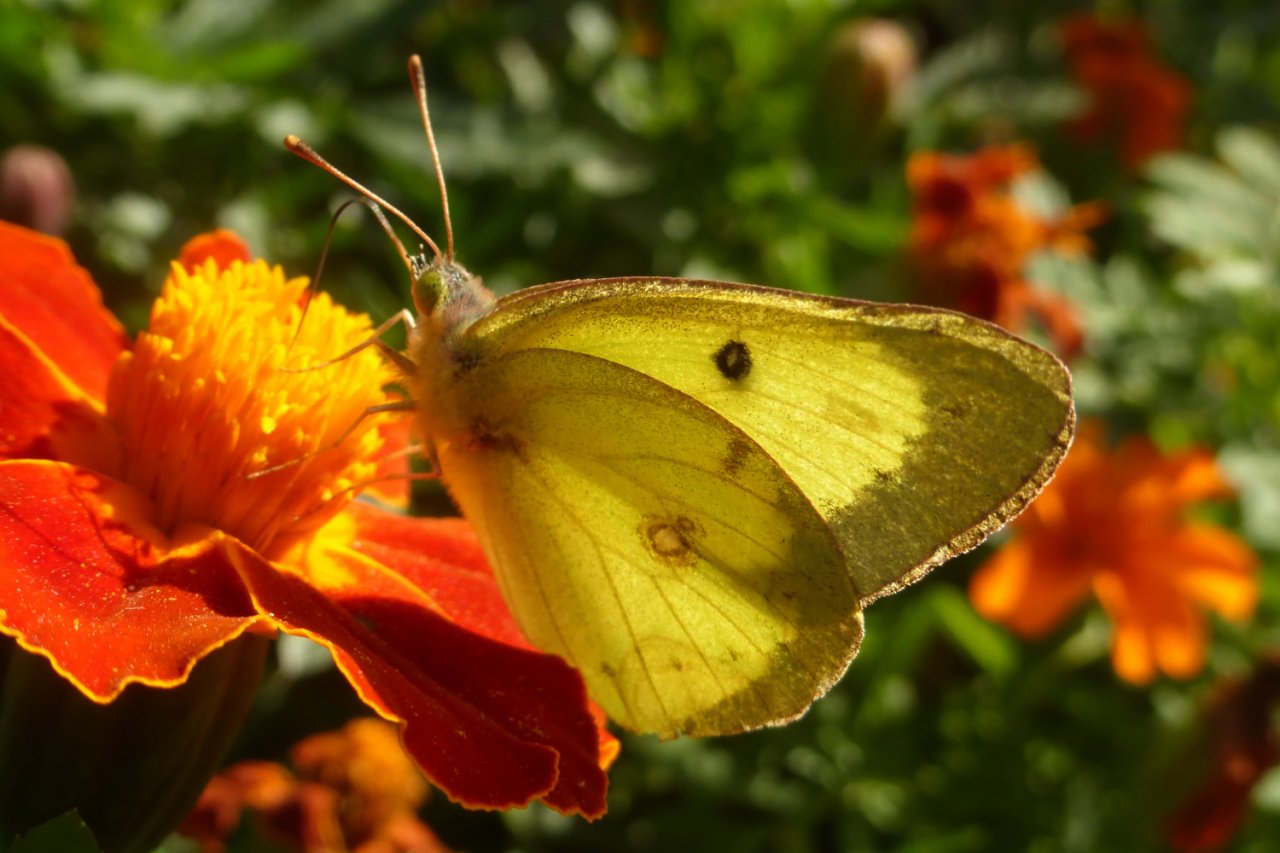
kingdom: Animalia
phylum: Arthropoda
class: Insecta
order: Lepidoptera
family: Pieridae
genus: Colias
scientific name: Colias philodice
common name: Clouded Sulphur
